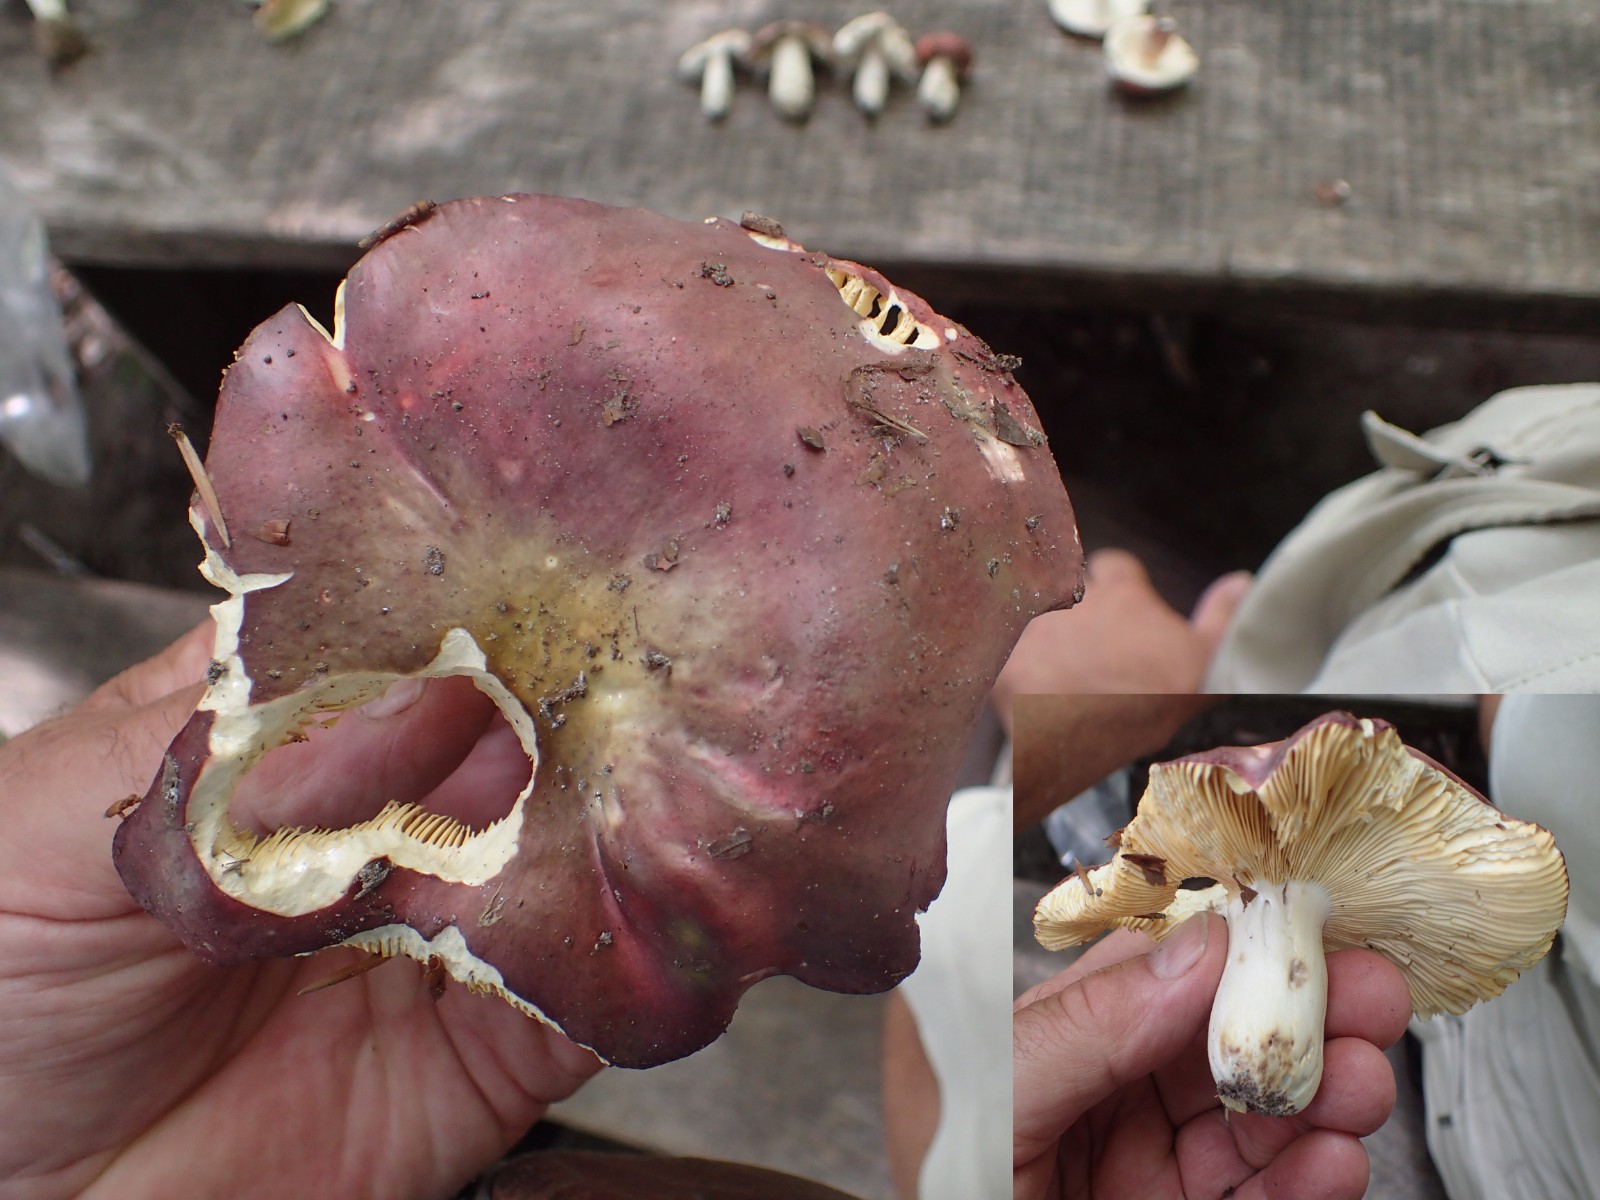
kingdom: Fungi
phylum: Basidiomycota
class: Agaricomycetes
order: Russulales
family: Russulaceae
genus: Russula
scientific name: Russula romellii
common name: romells skørhat
